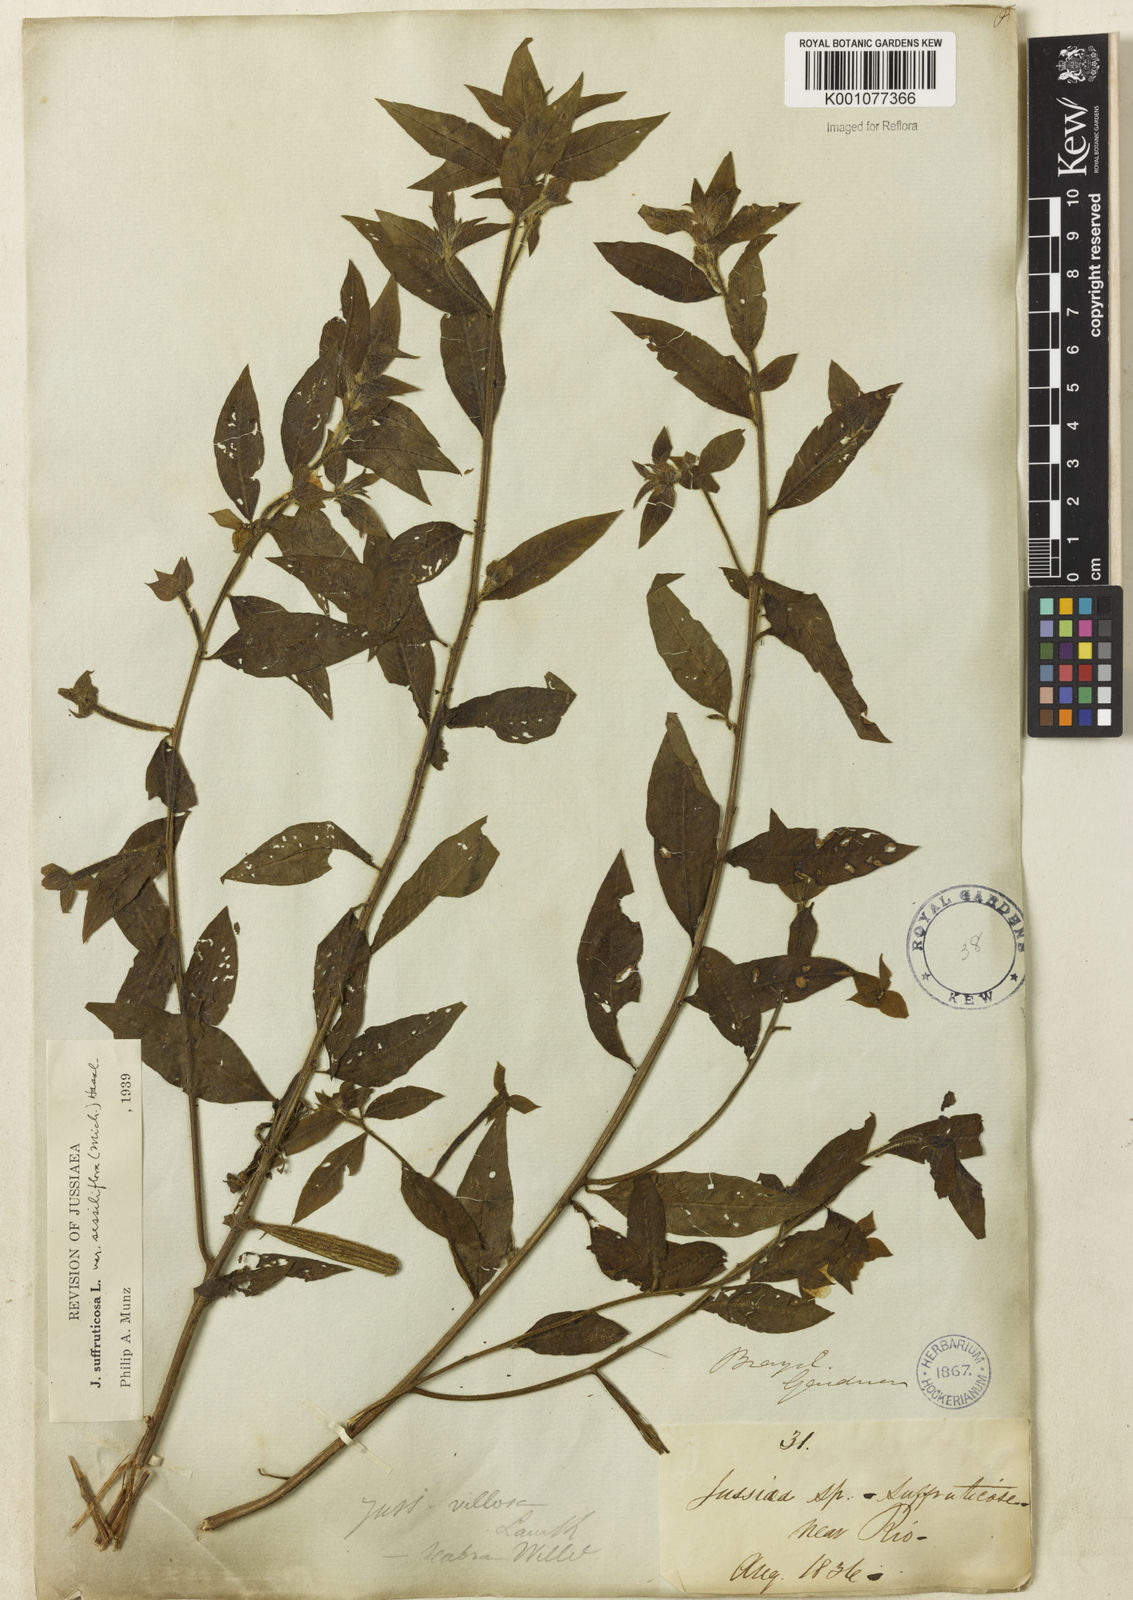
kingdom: Plantae
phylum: Tracheophyta
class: Magnoliopsida
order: Myrtales
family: Onagraceae
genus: Ludwigia
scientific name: Ludwigia octovalvis
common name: Water-primrose
